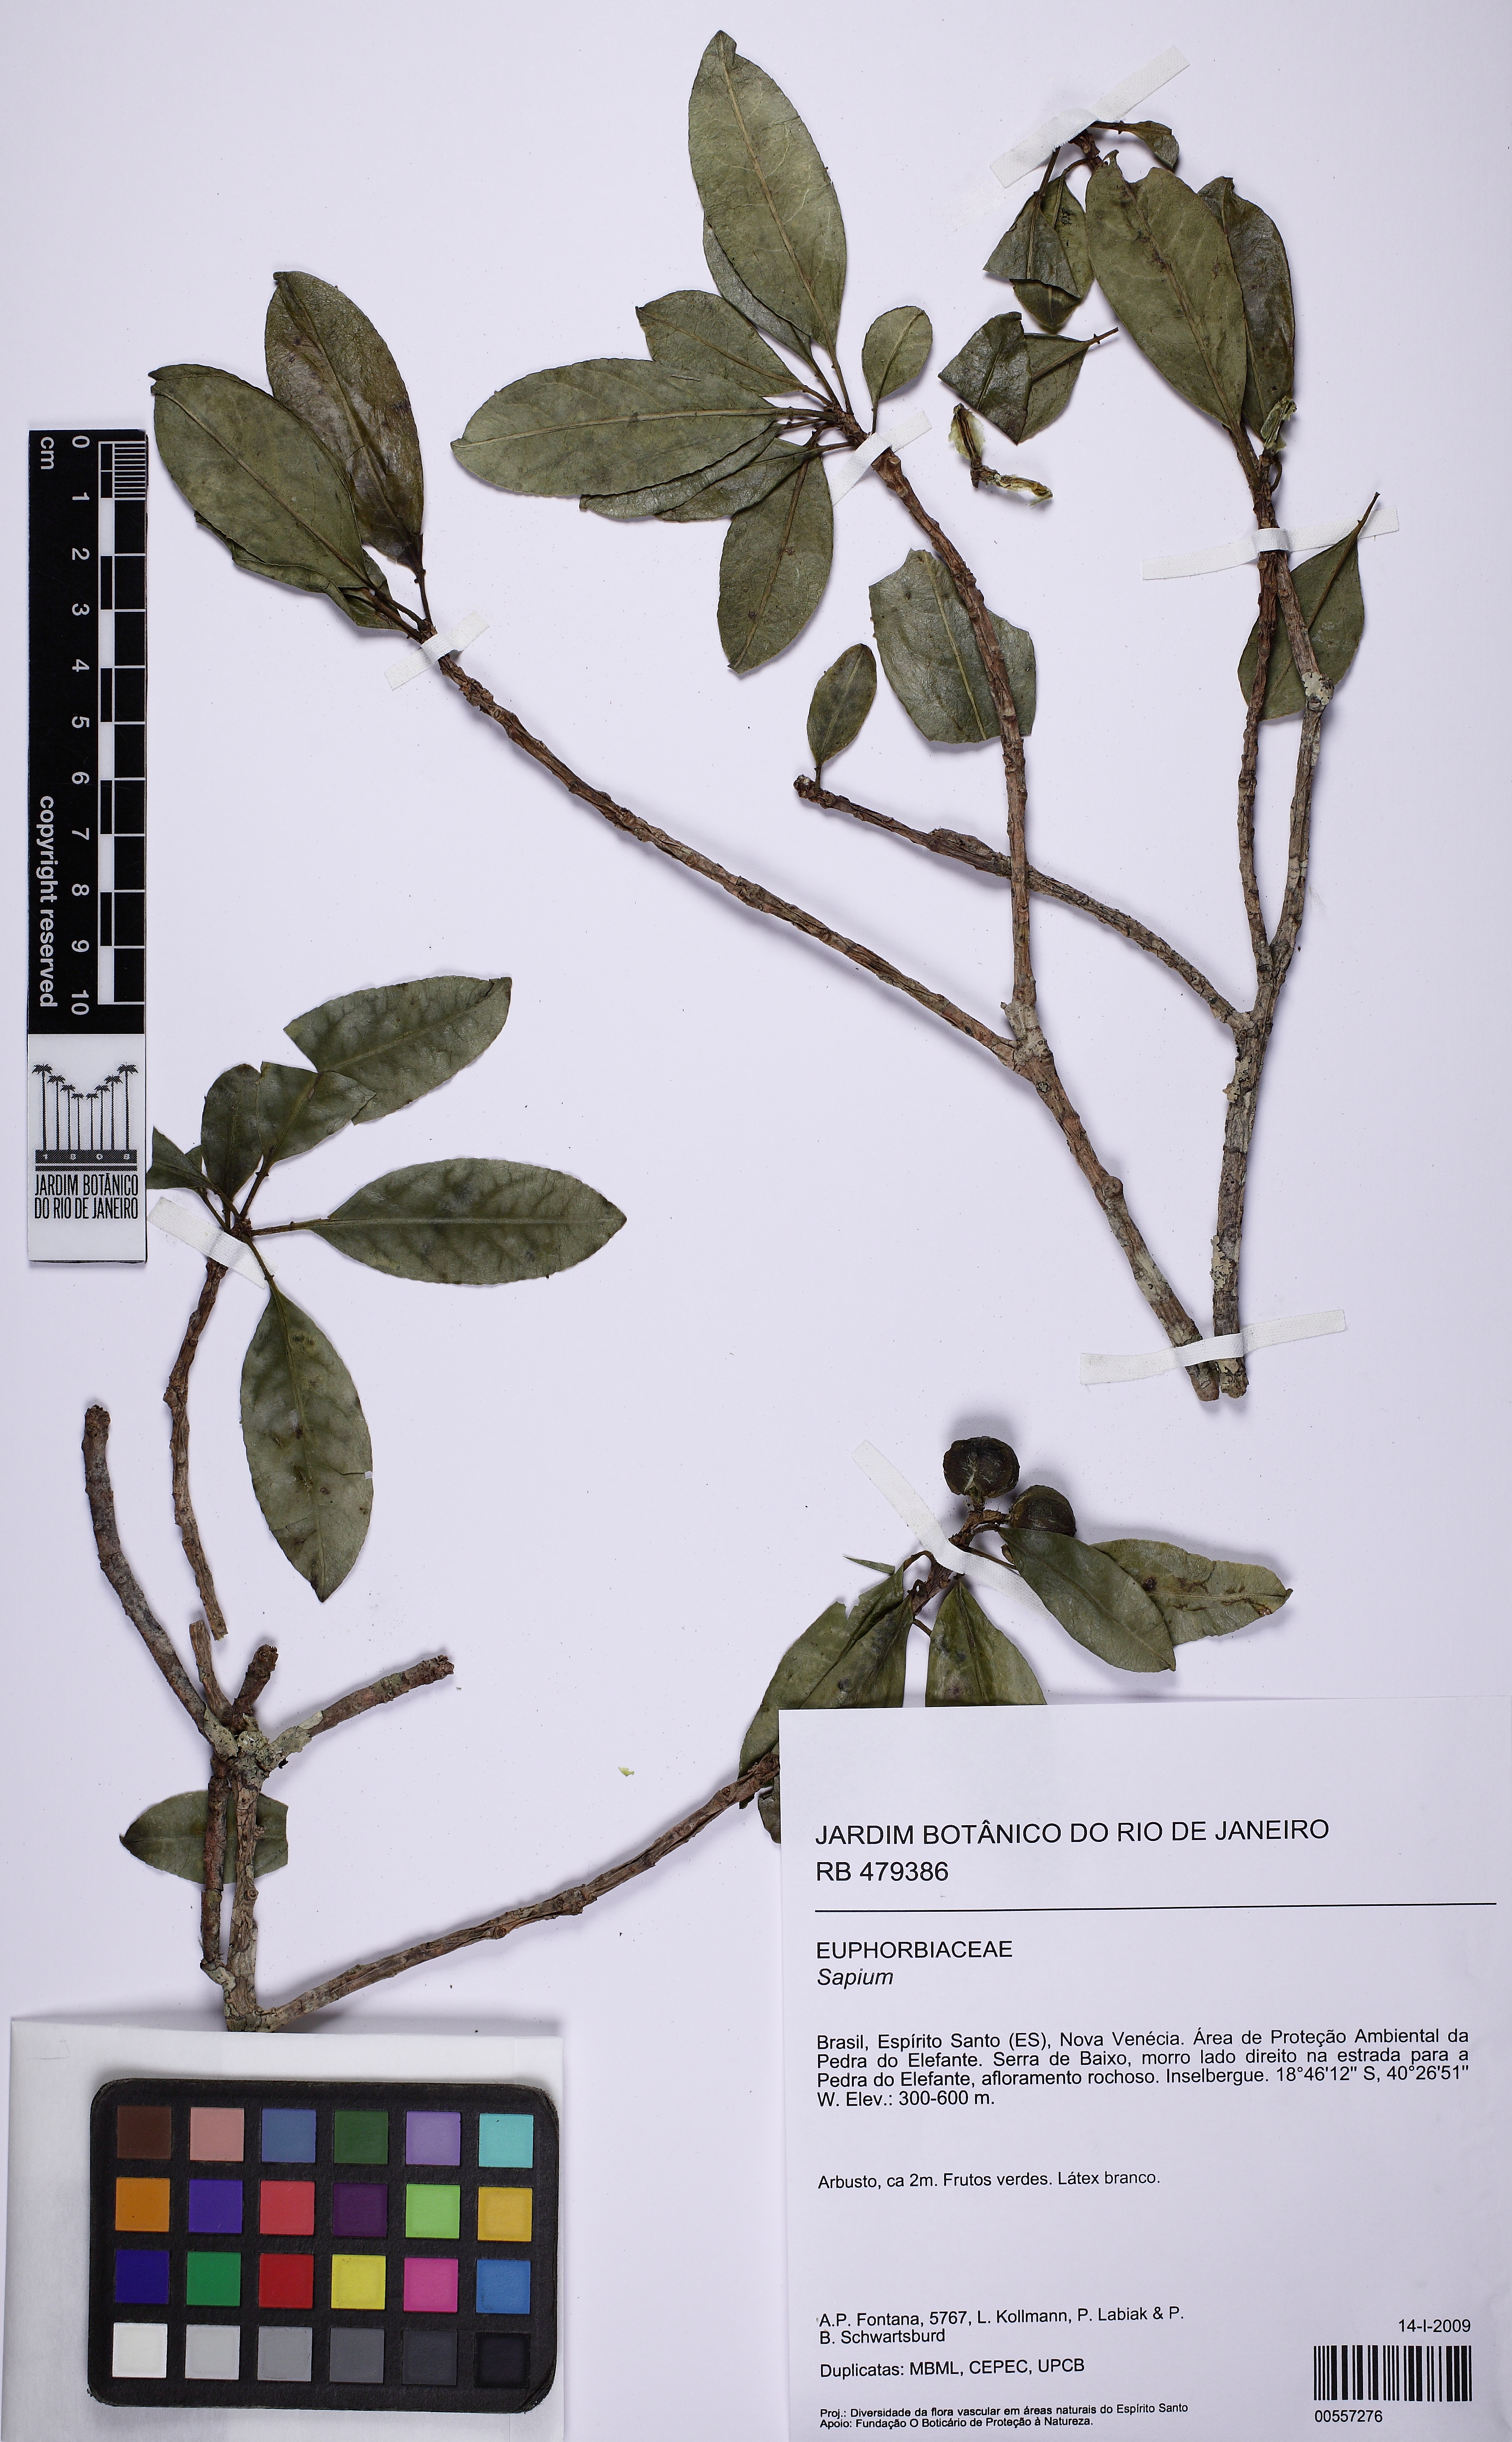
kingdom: Plantae
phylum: Tracheophyta
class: Magnoliopsida
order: Malpighiales
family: Euphorbiaceae
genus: Sapium
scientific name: Sapium
